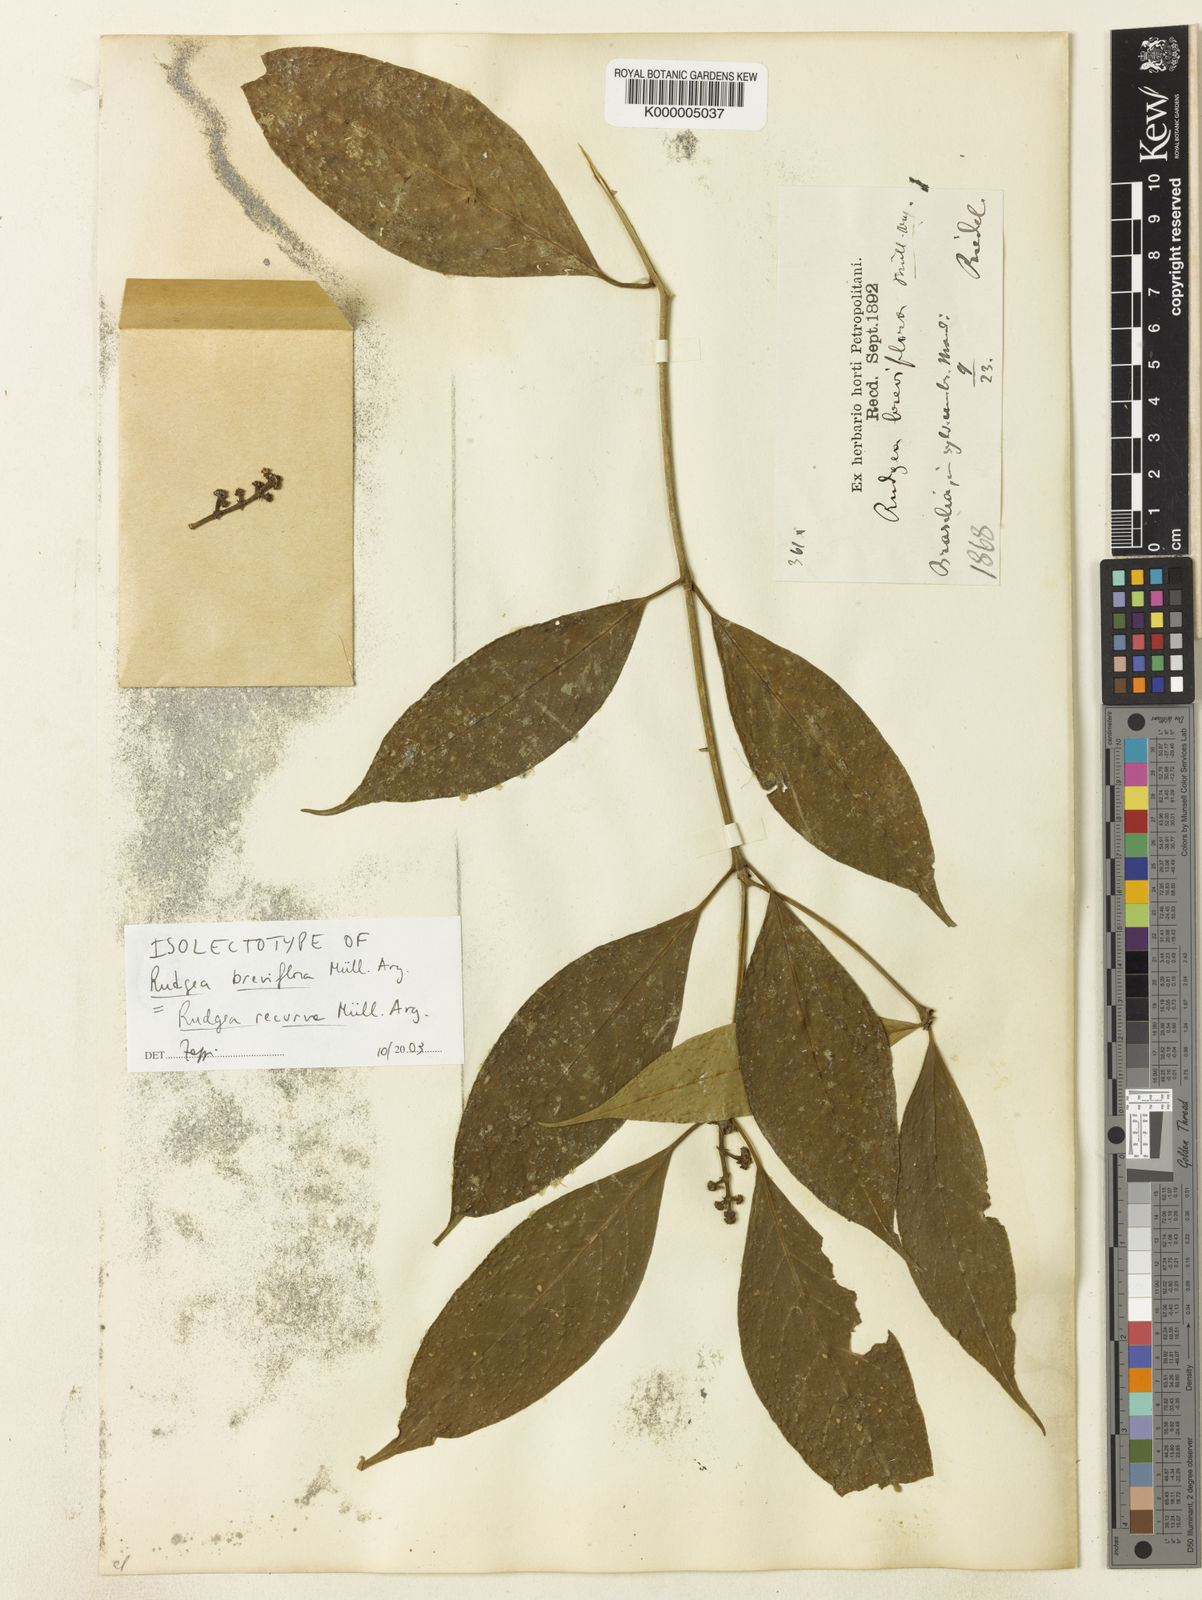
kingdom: Plantae
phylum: Tracheophyta
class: Magnoliopsida
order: Gentianales
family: Rubiaceae
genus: Rudgea
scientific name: Rudgea
